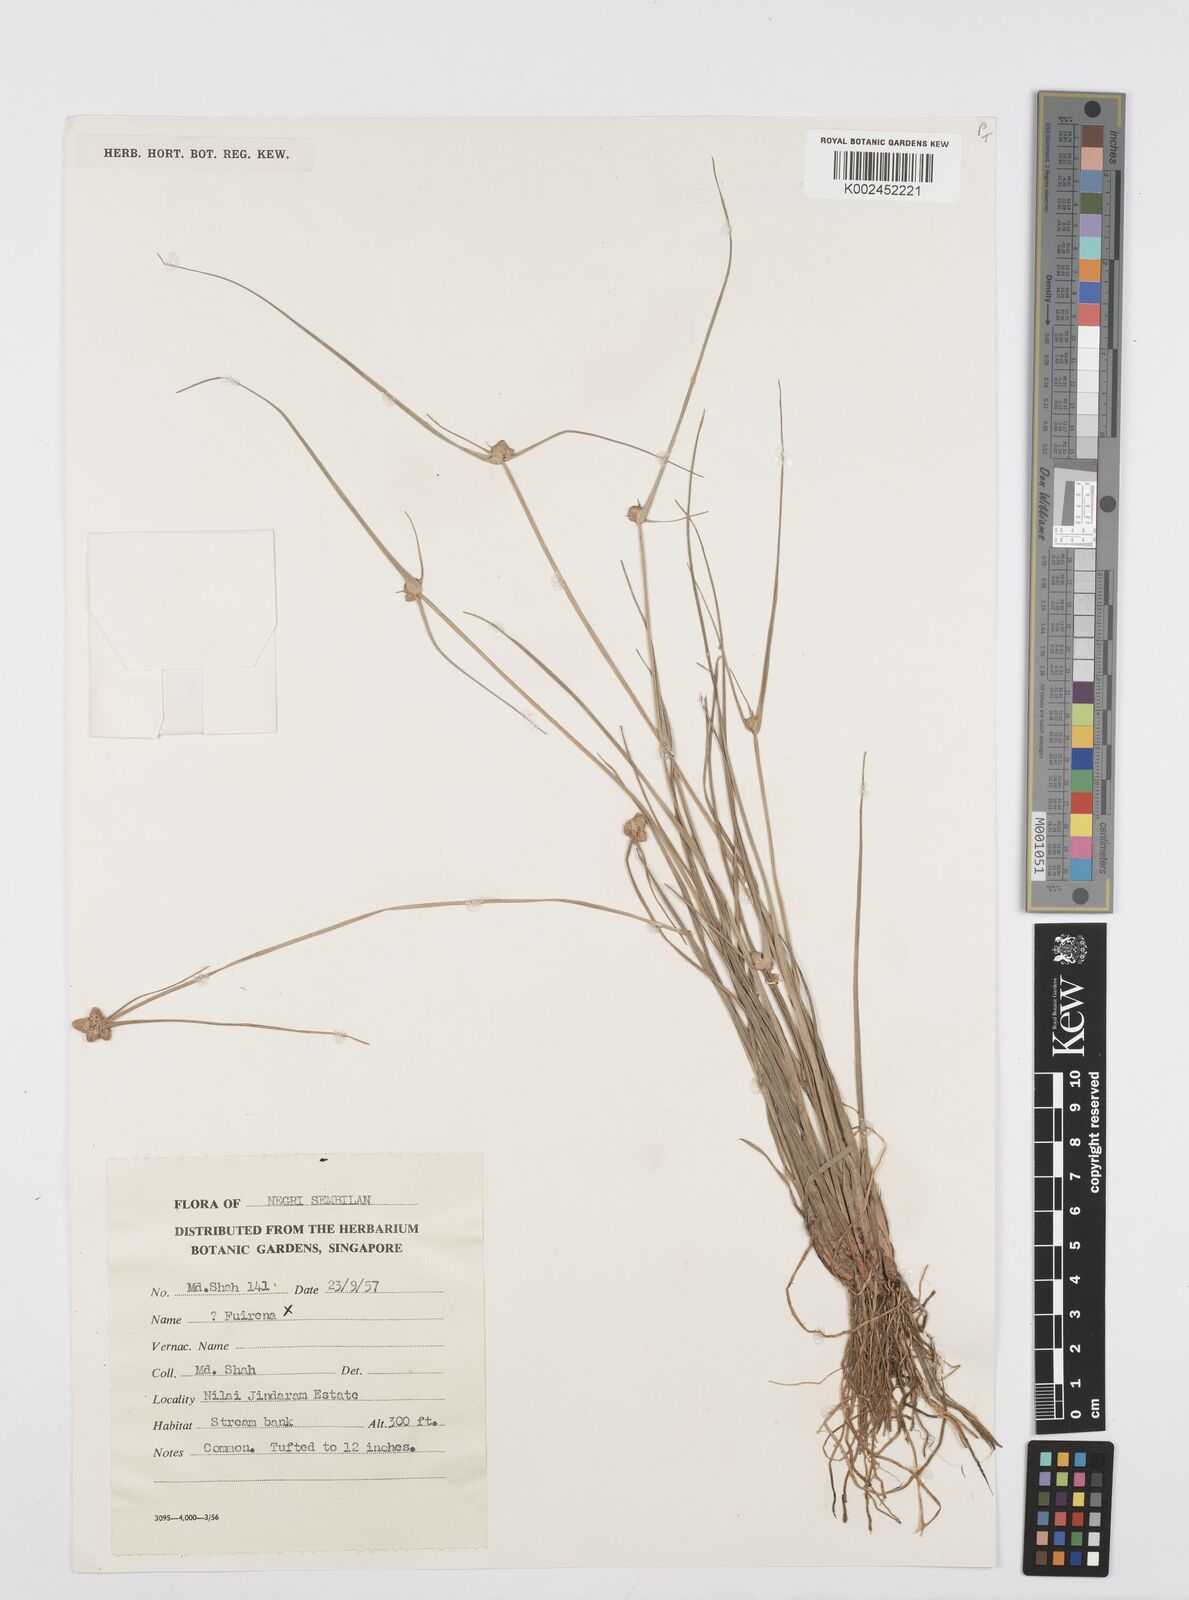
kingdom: Plantae
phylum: Tracheophyta
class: Liliopsida
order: Poales
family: Cyperaceae
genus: Cyperus
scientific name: Cyperus
